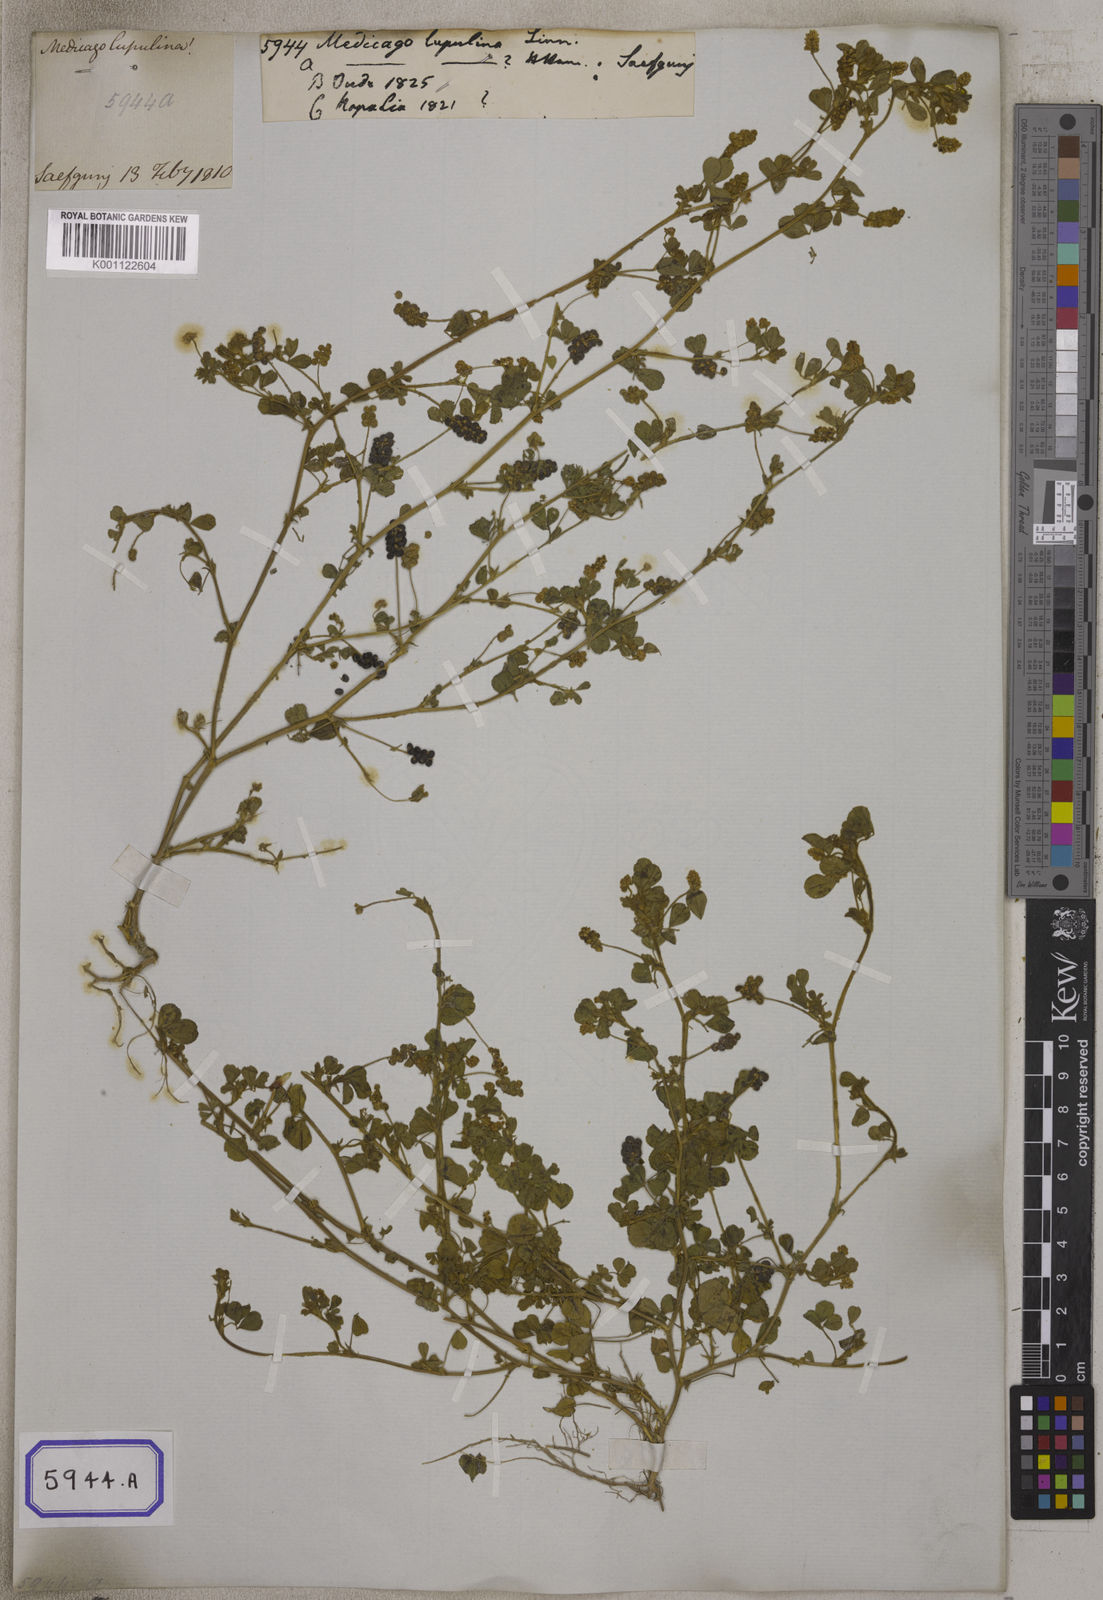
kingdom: Plantae
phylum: Tracheophyta
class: Magnoliopsida
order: Fabales
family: Fabaceae
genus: Medicago
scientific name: Medicago lupulina
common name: Black medick
